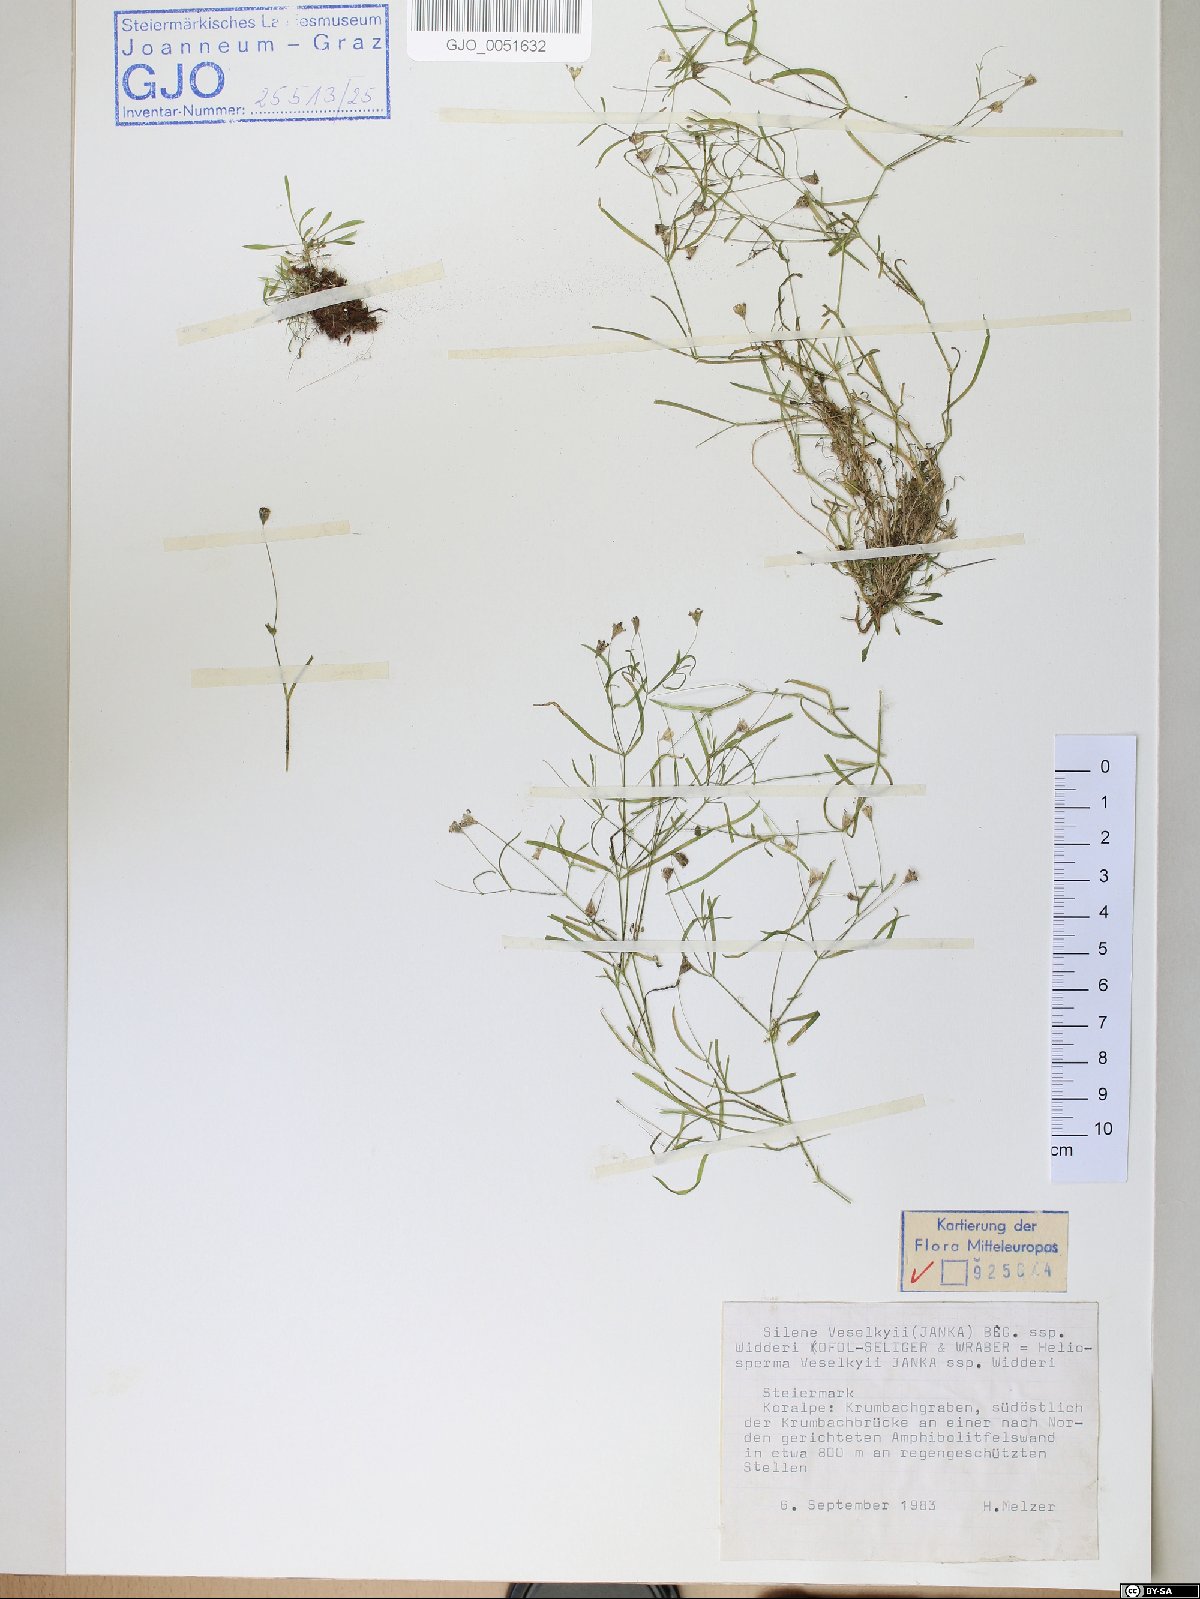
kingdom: Plantae
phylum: Tracheophyta
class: Magnoliopsida
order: Caryophyllales
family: Caryophyllaceae
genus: Heliosperma
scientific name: Heliosperma veselskyi
